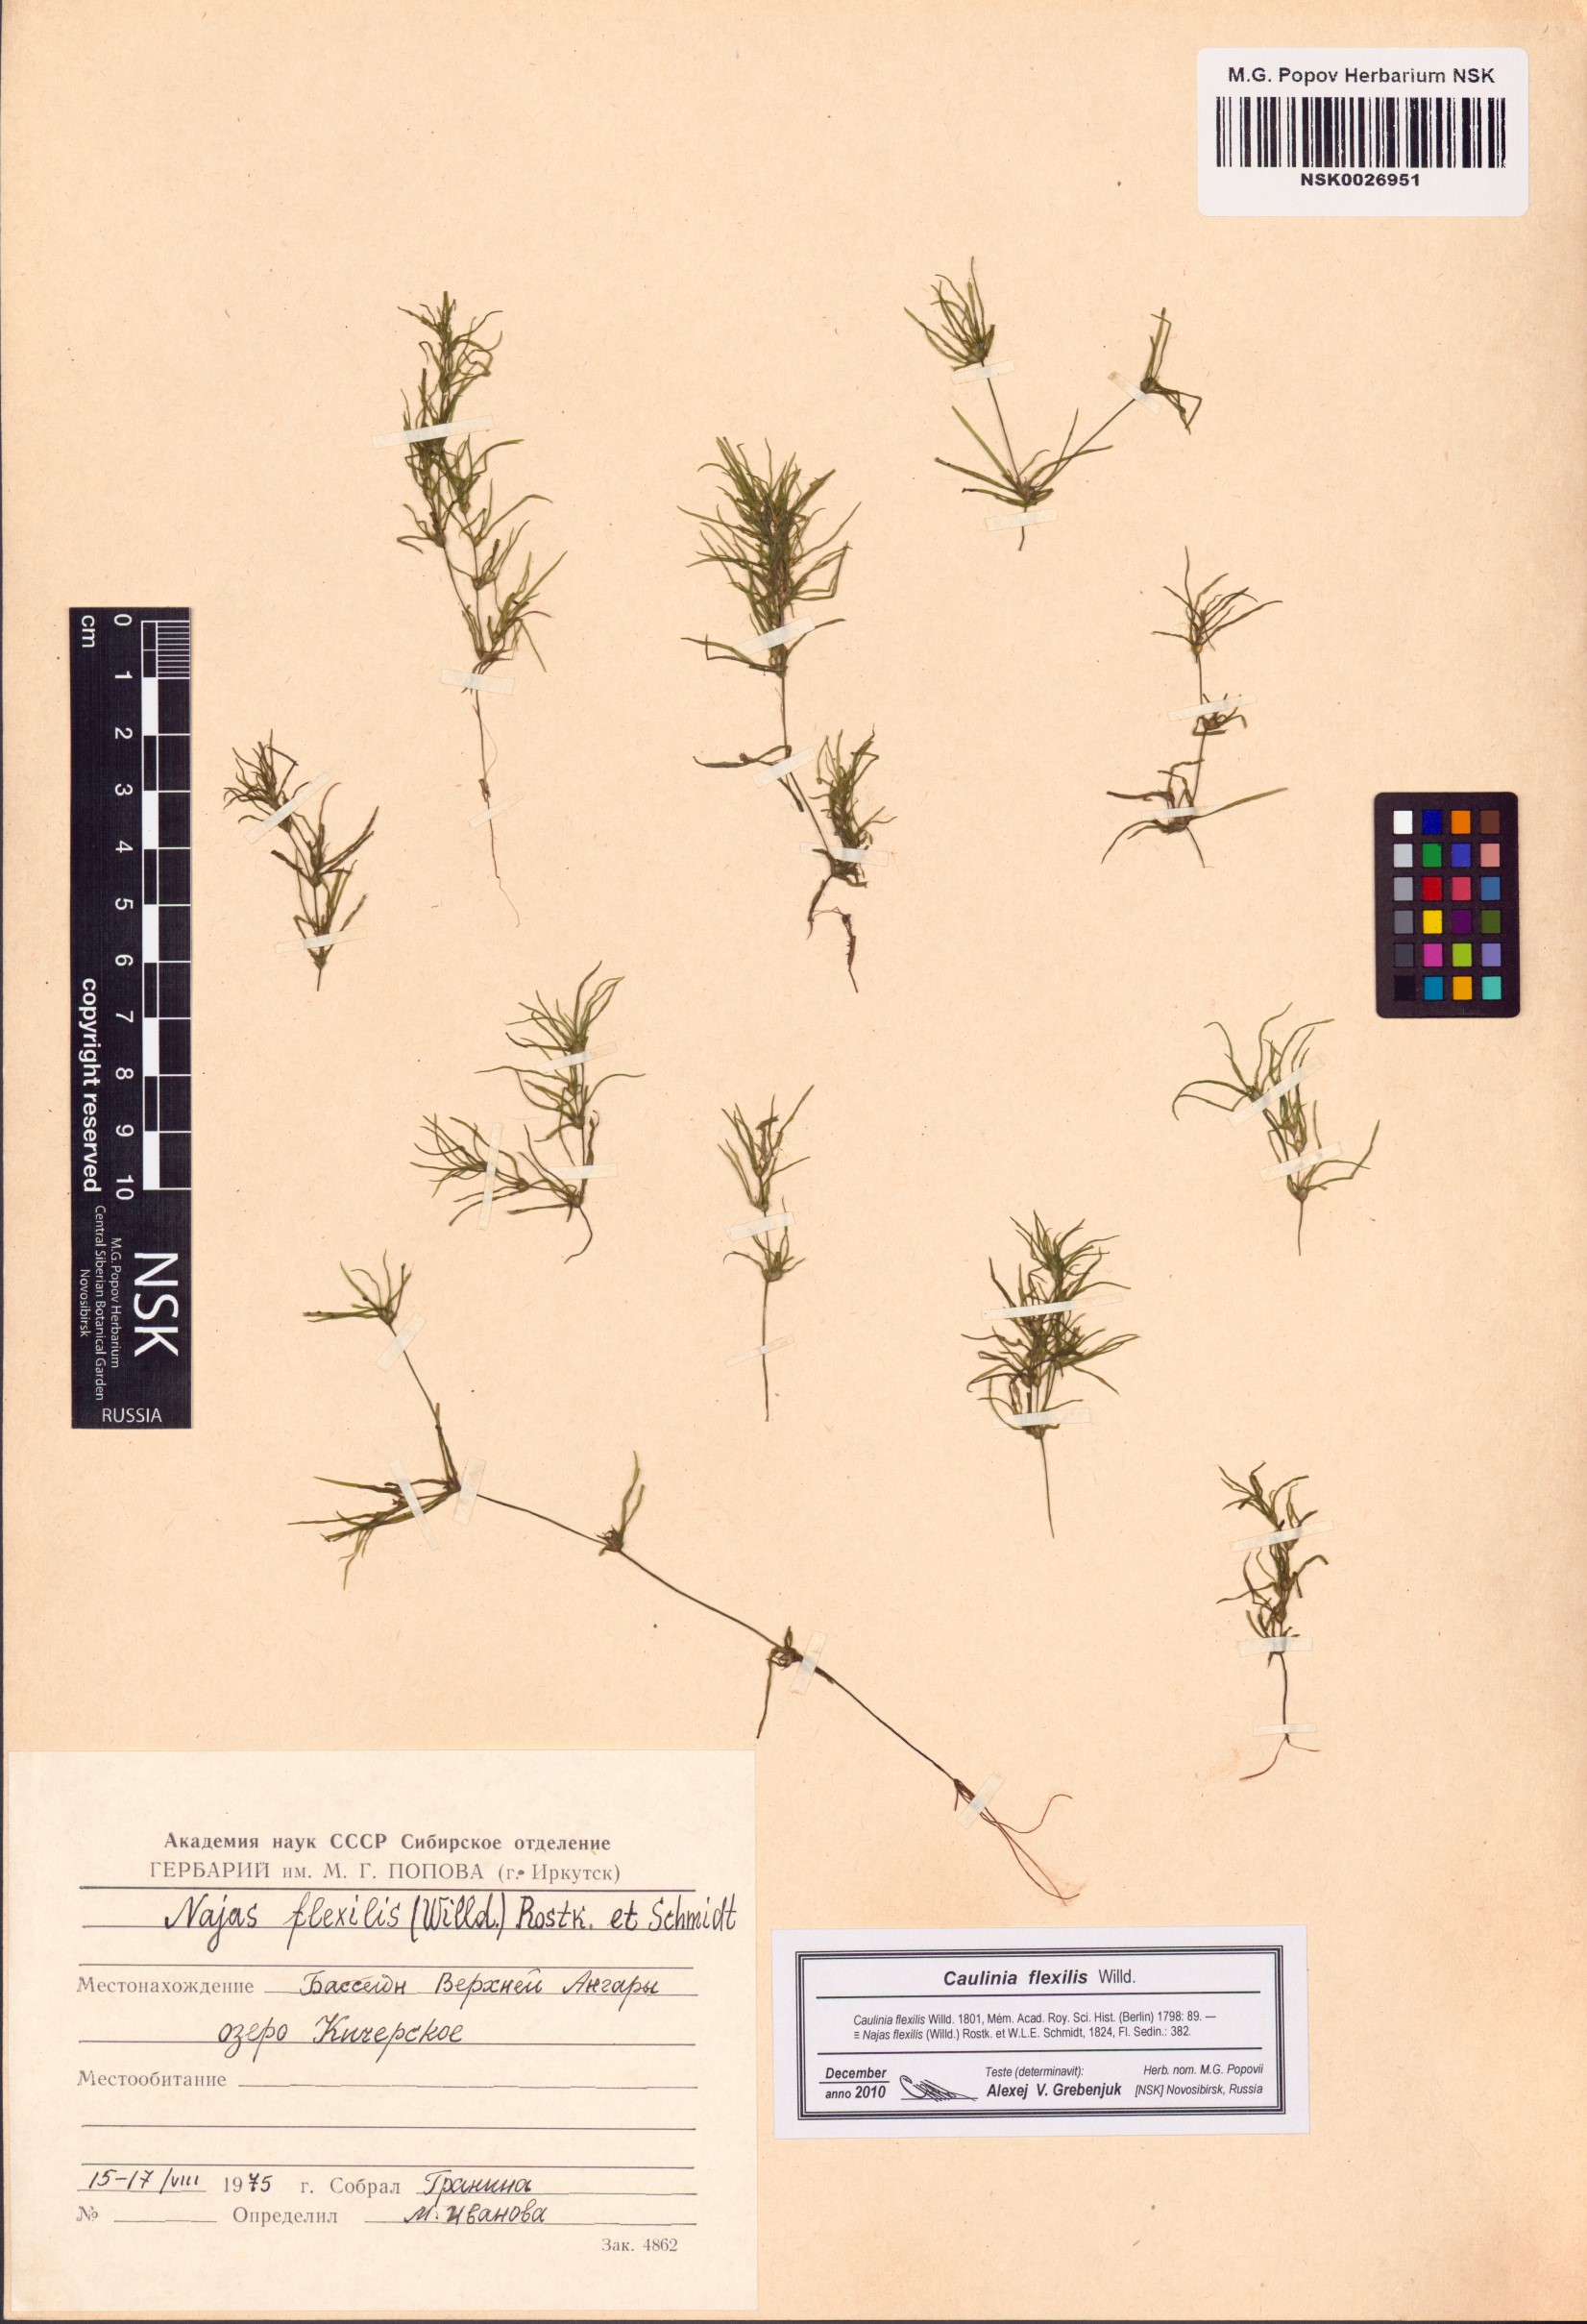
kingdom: Plantae
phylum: Tracheophyta
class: Liliopsida
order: Alismatales
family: Hydrocharitaceae
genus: Najas
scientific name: Najas flexilis
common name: Slender naiad
